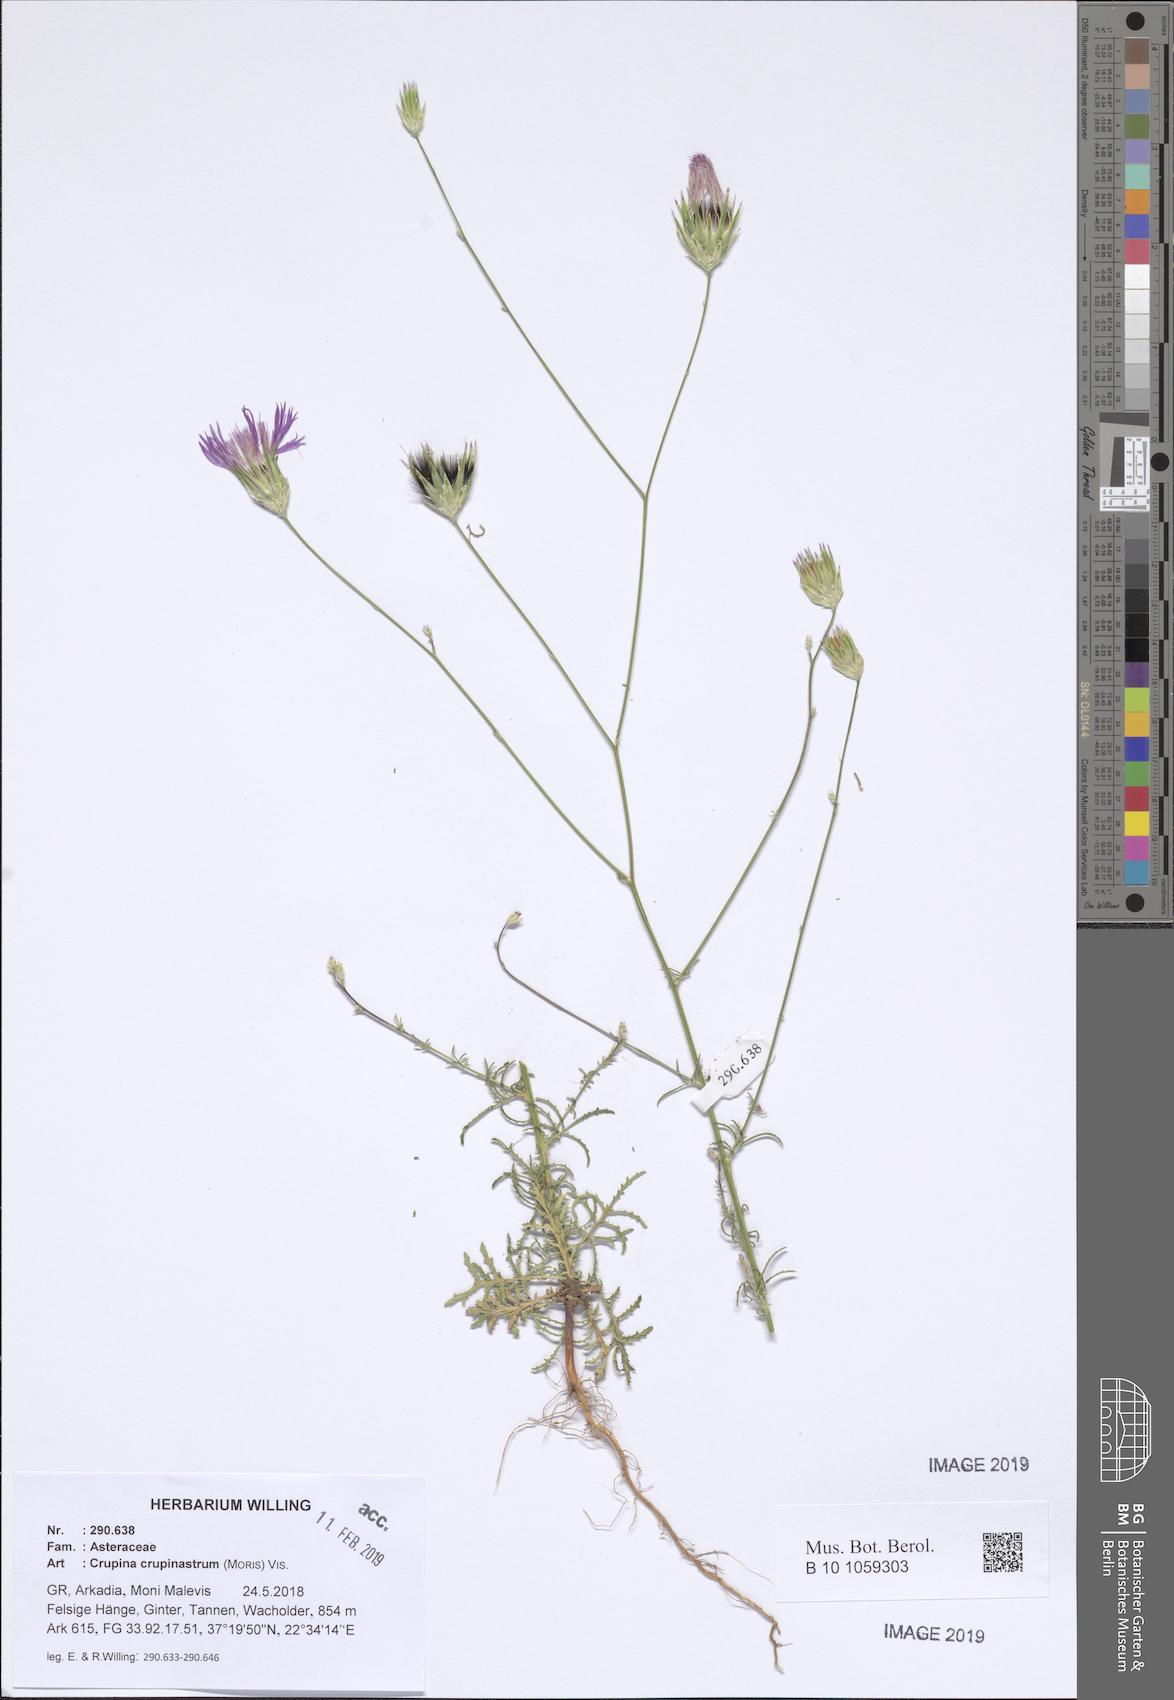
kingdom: Plantae
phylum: Tracheophyta
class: Magnoliopsida
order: Asterales
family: Asteraceae
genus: Crupina
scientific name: Crupina crupinastrum
